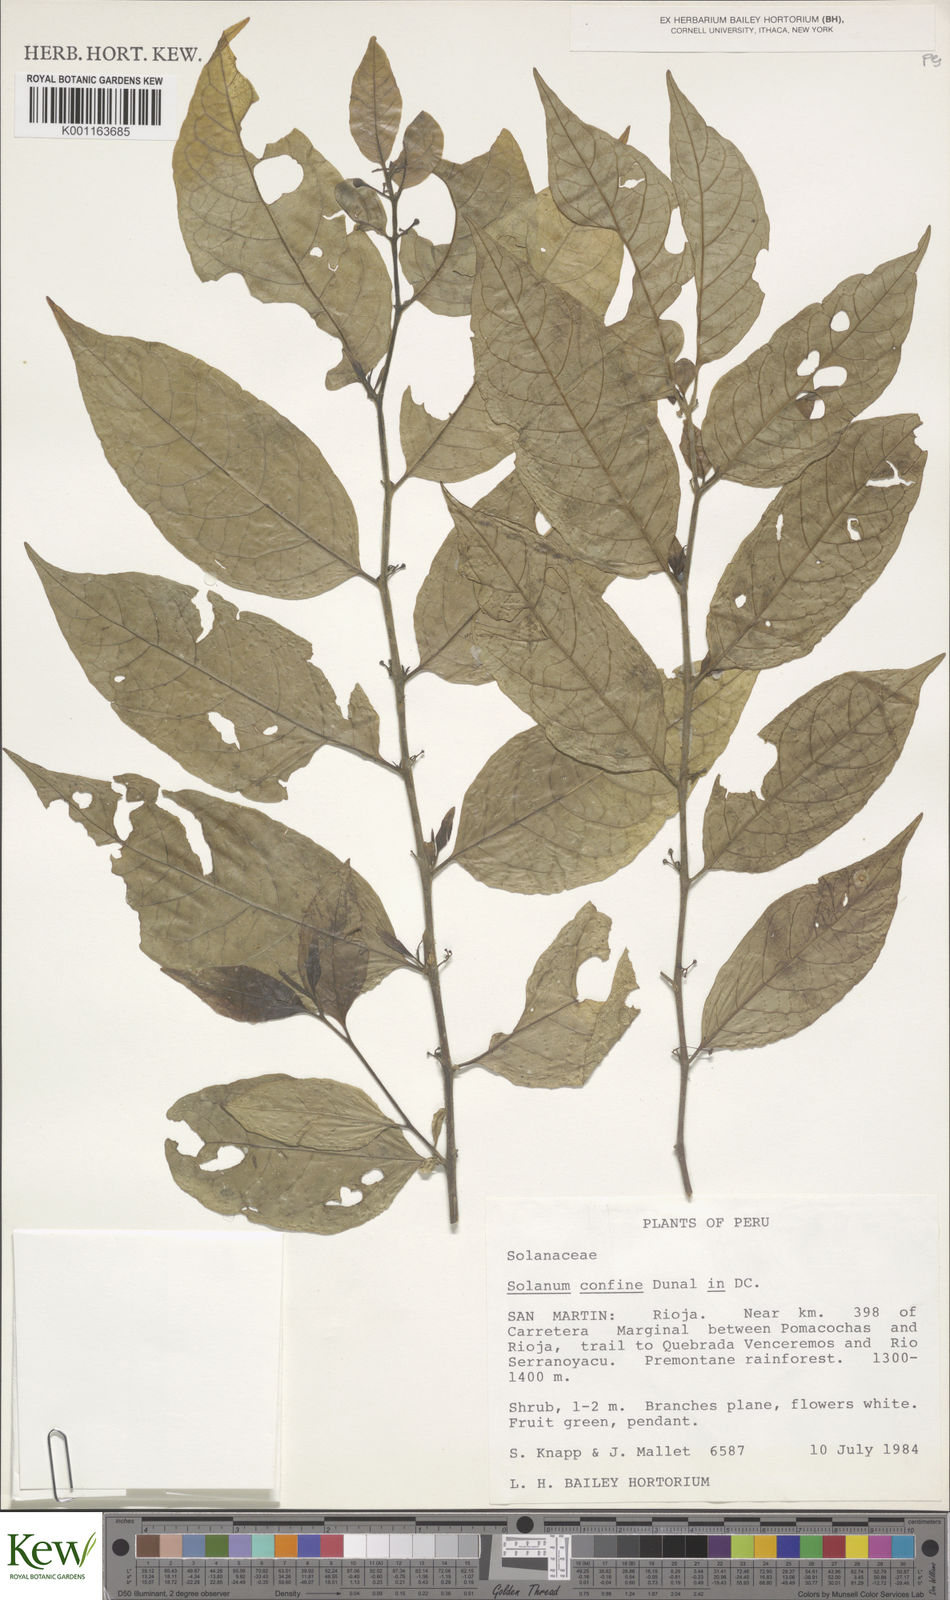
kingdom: Plantae
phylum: Tracheophyta
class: Magnoliopsida
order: Solanales
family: Solanaceae
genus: Solanum
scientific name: Solanum confine
